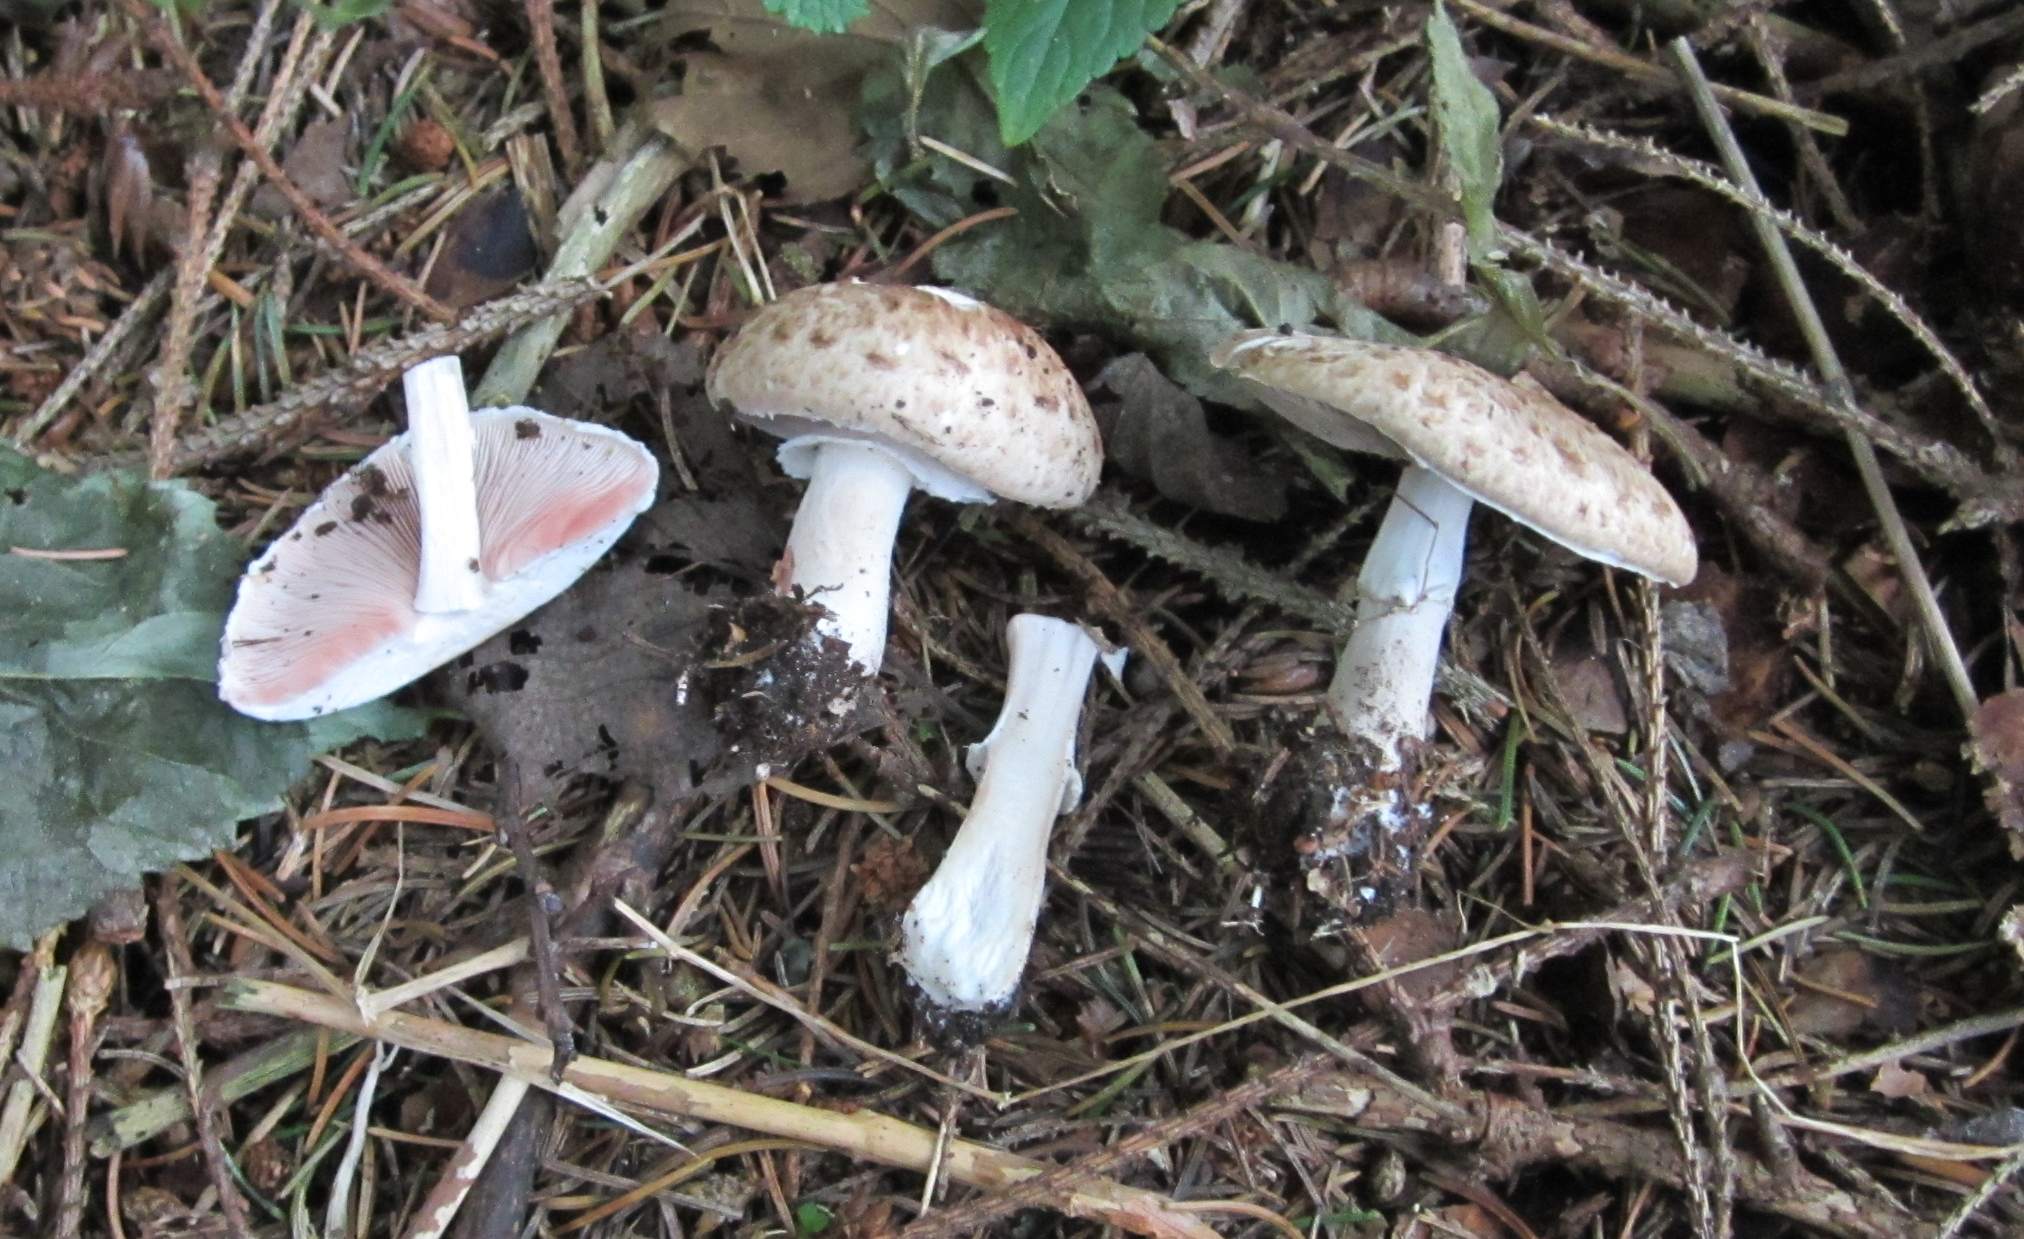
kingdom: Fungi
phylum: Basidiomycota
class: Agaricomycetes
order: Agaricales
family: Agaricaceae
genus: Agaricus
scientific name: Agaricus impudicus
